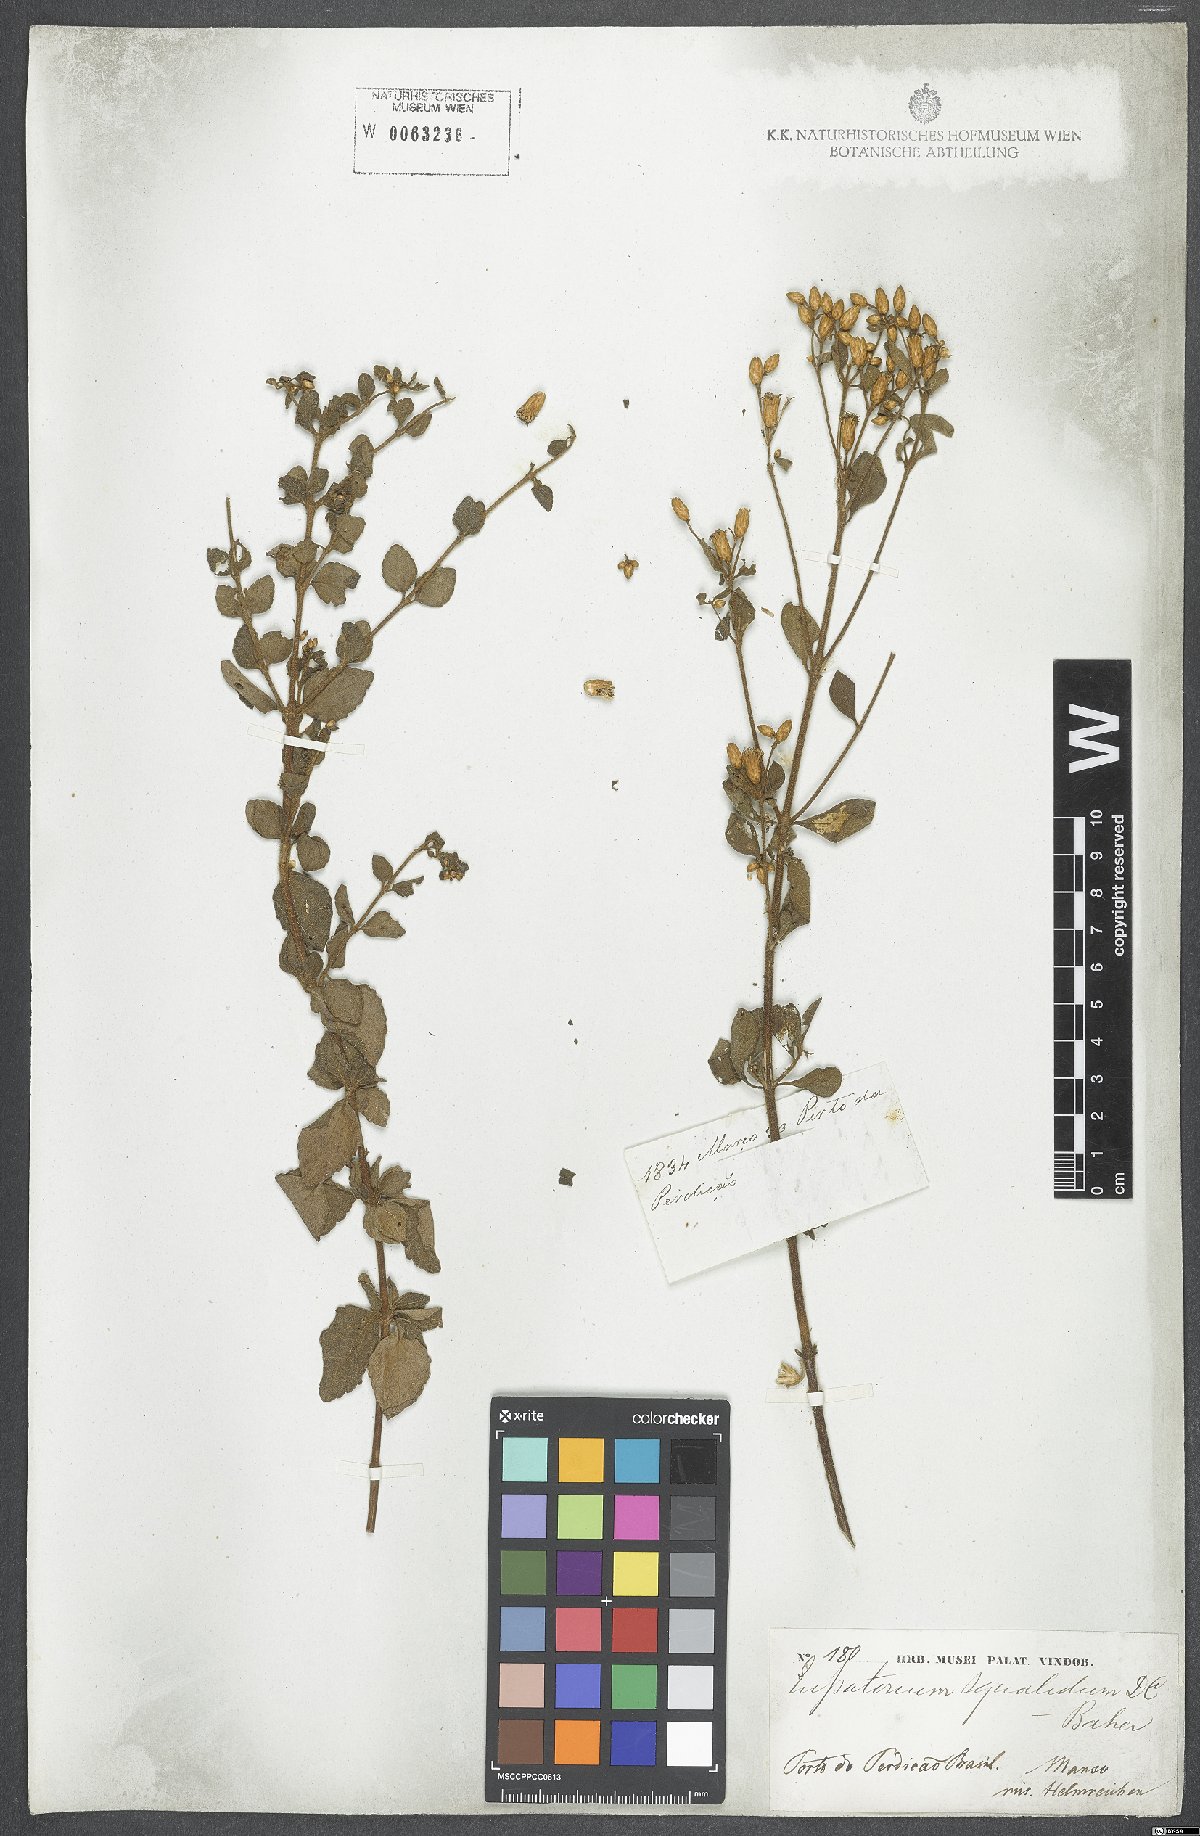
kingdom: Plantae
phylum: Tracheophyta
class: Magnoliopsida
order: Asterales
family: Asteraceae
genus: Chromolaena
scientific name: Chromolaena squalida
